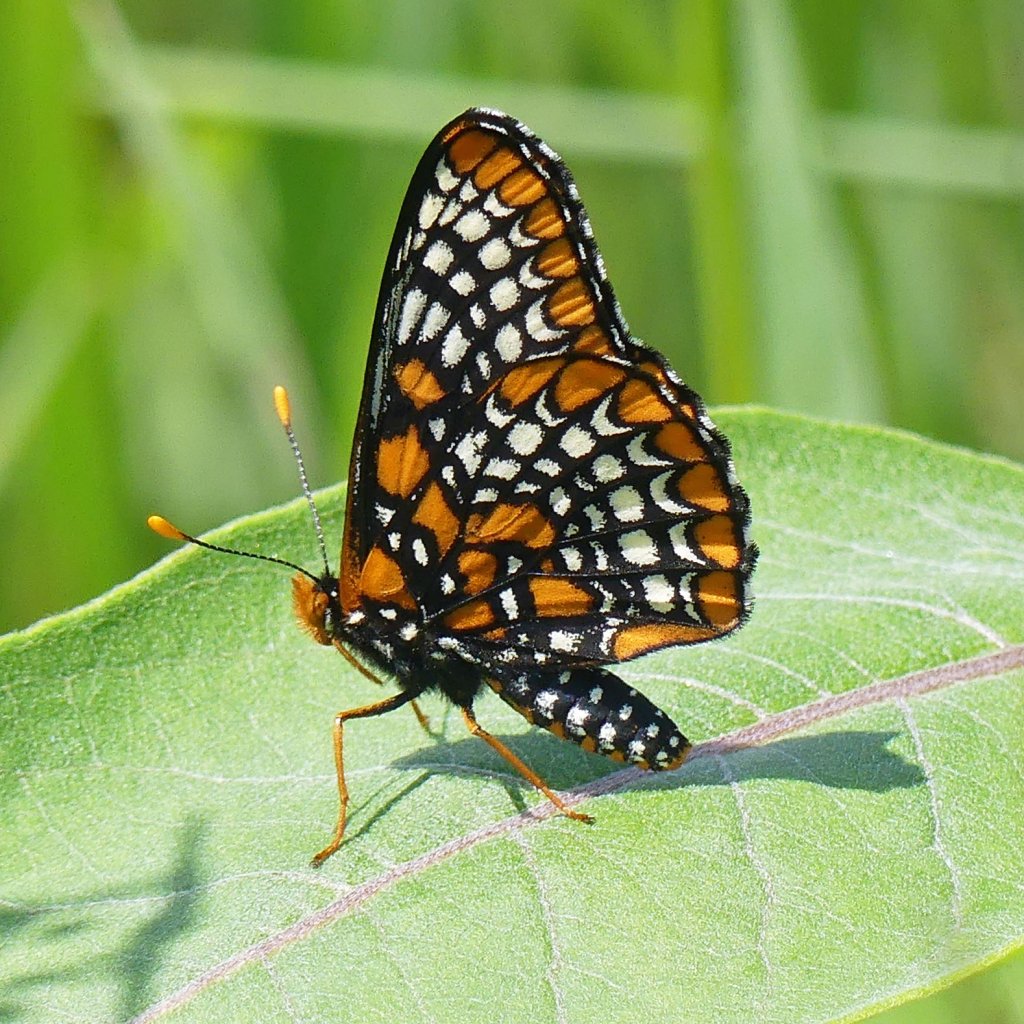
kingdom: Animalia
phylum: Arthropoda
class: Insecta
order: Lepidoptera
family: Nymphalidae
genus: Euphydryas
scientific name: Euphydryas phaeton
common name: Baltimore Checkerspot
